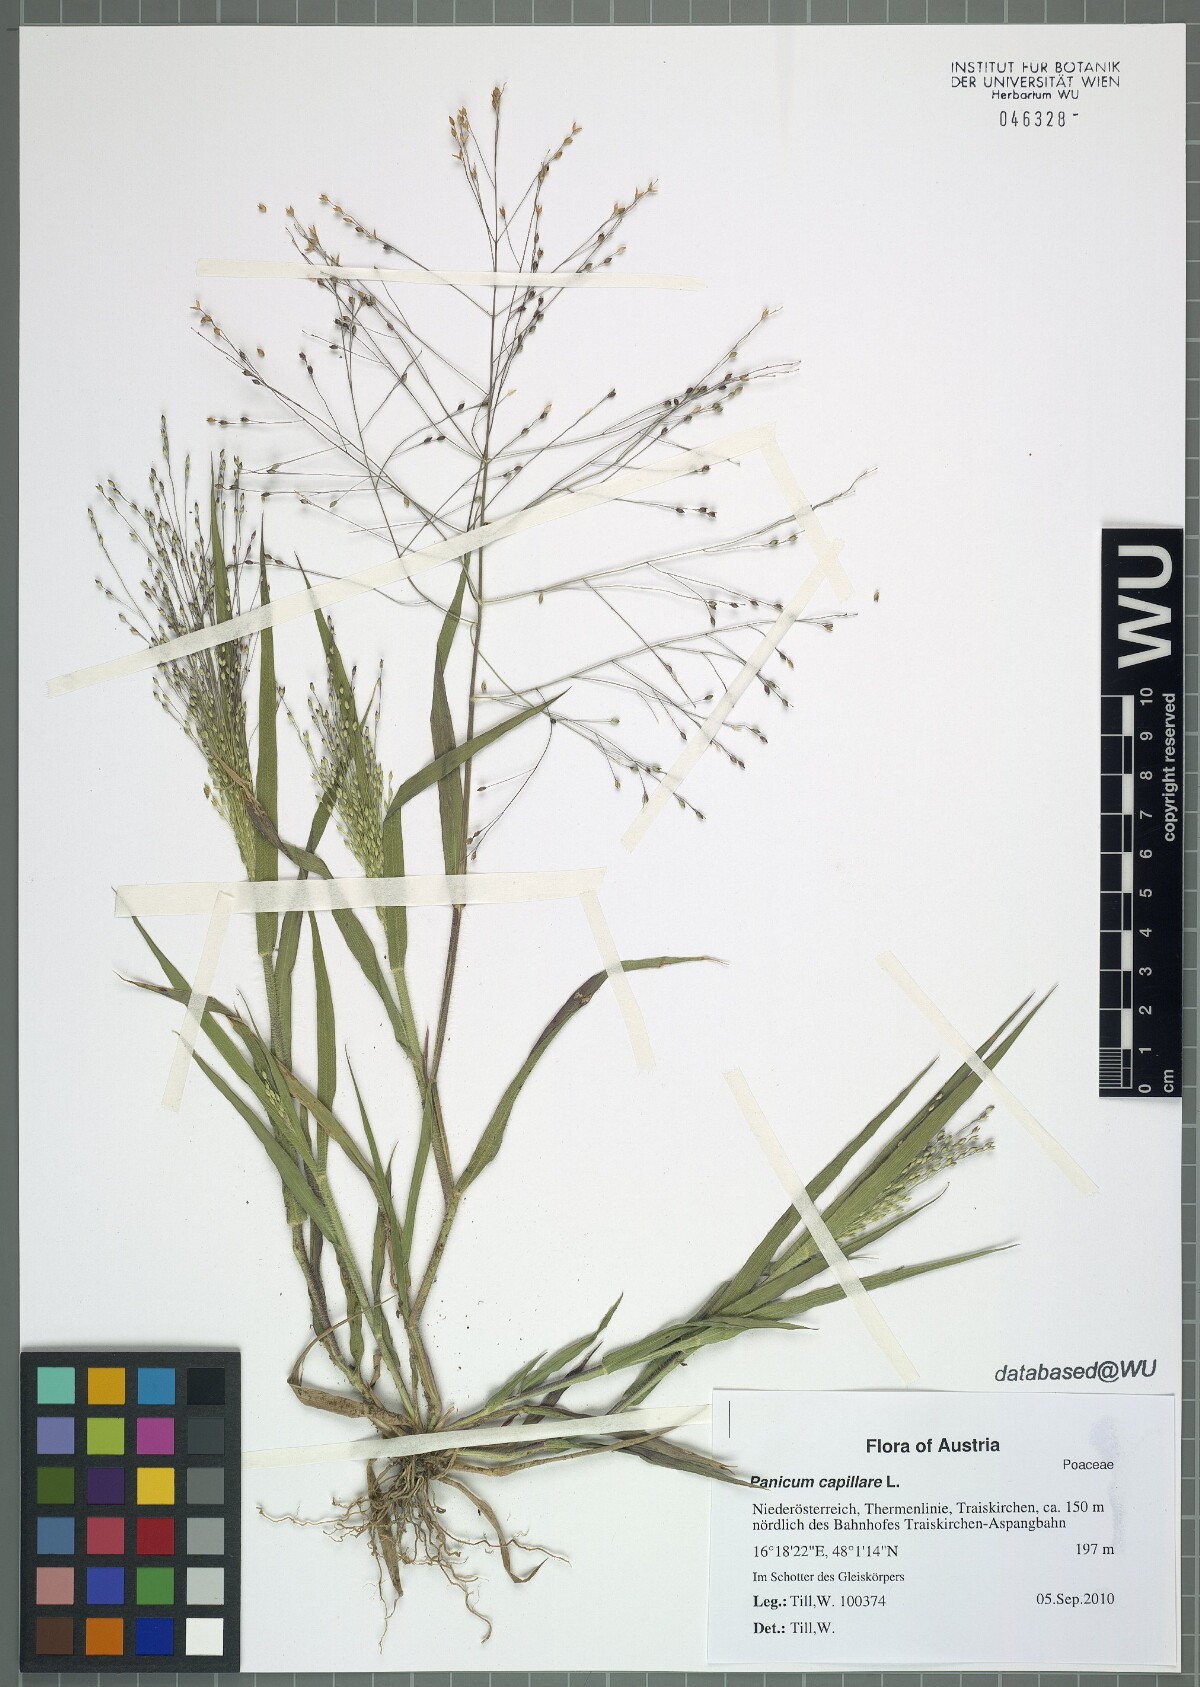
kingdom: Plantae
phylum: Tracheophyta
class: Liliopsida
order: Poales
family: Poaceae
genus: Panicum
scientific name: Panicum capillare
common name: Witch-grass
